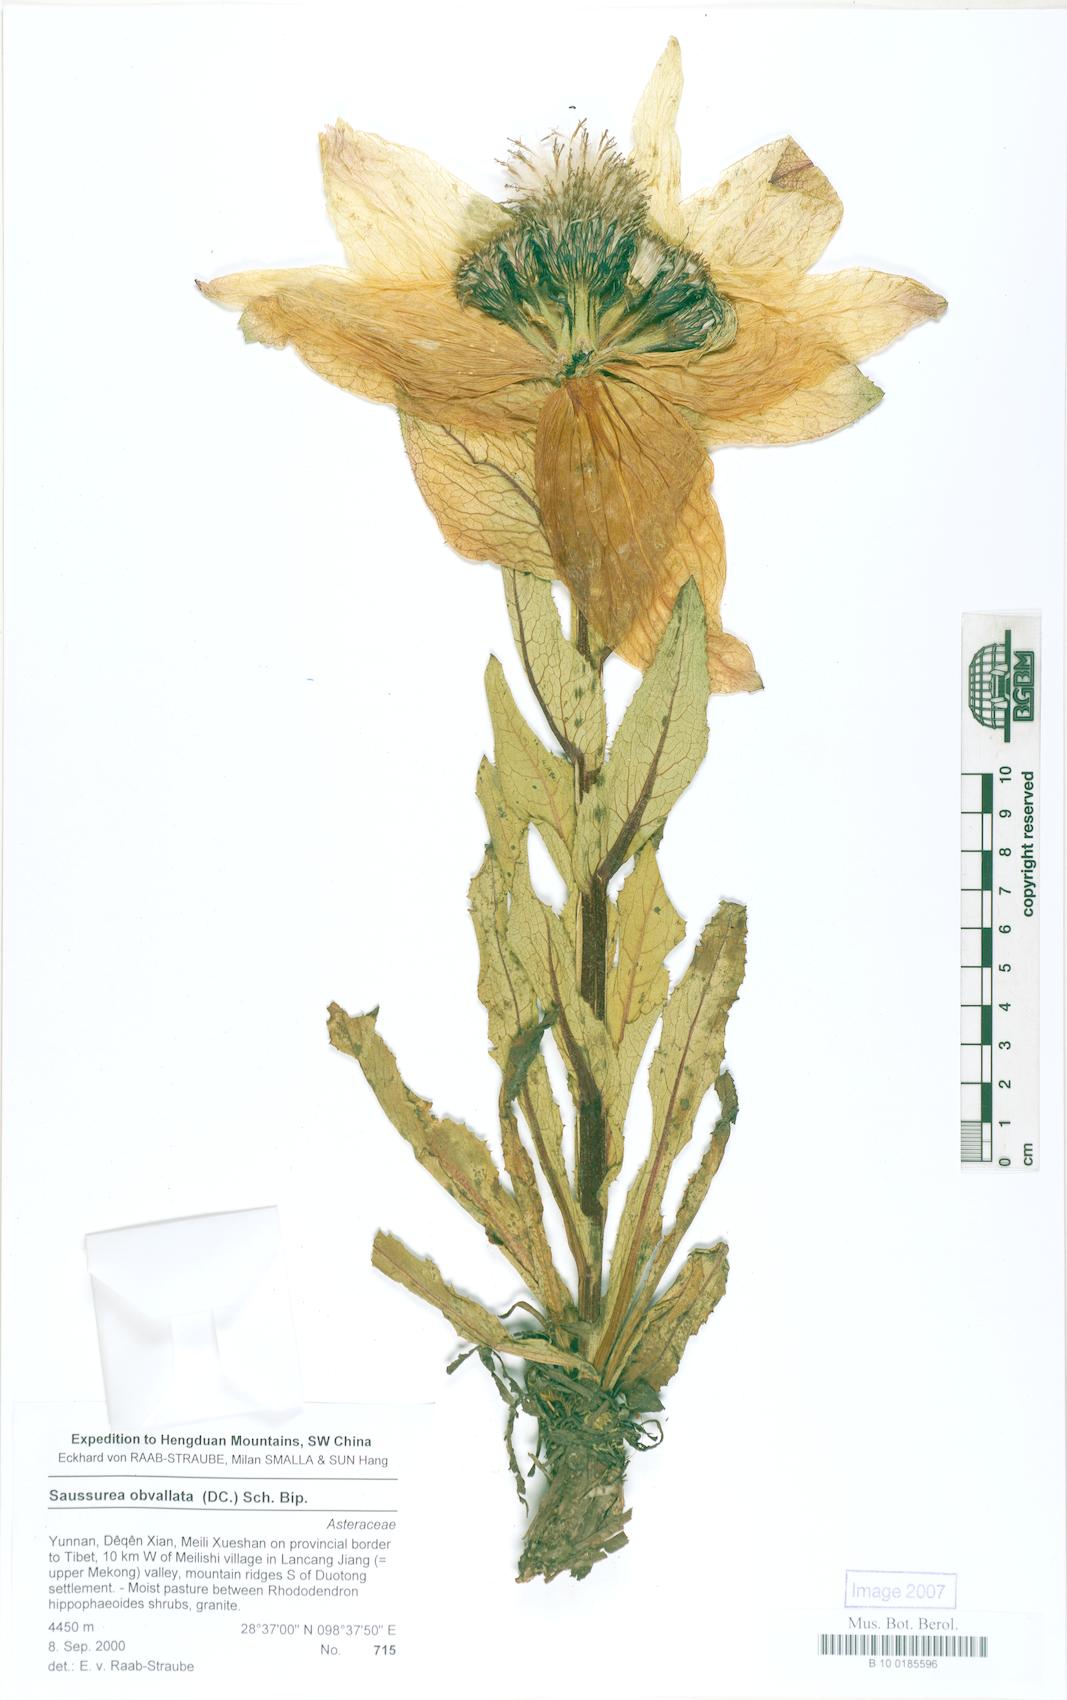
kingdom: Plantae
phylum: Tracheophyta
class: Magnoliopsida
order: Asterales
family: Asteraceae
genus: Saussurea
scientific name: Saussurea kawakarpo
